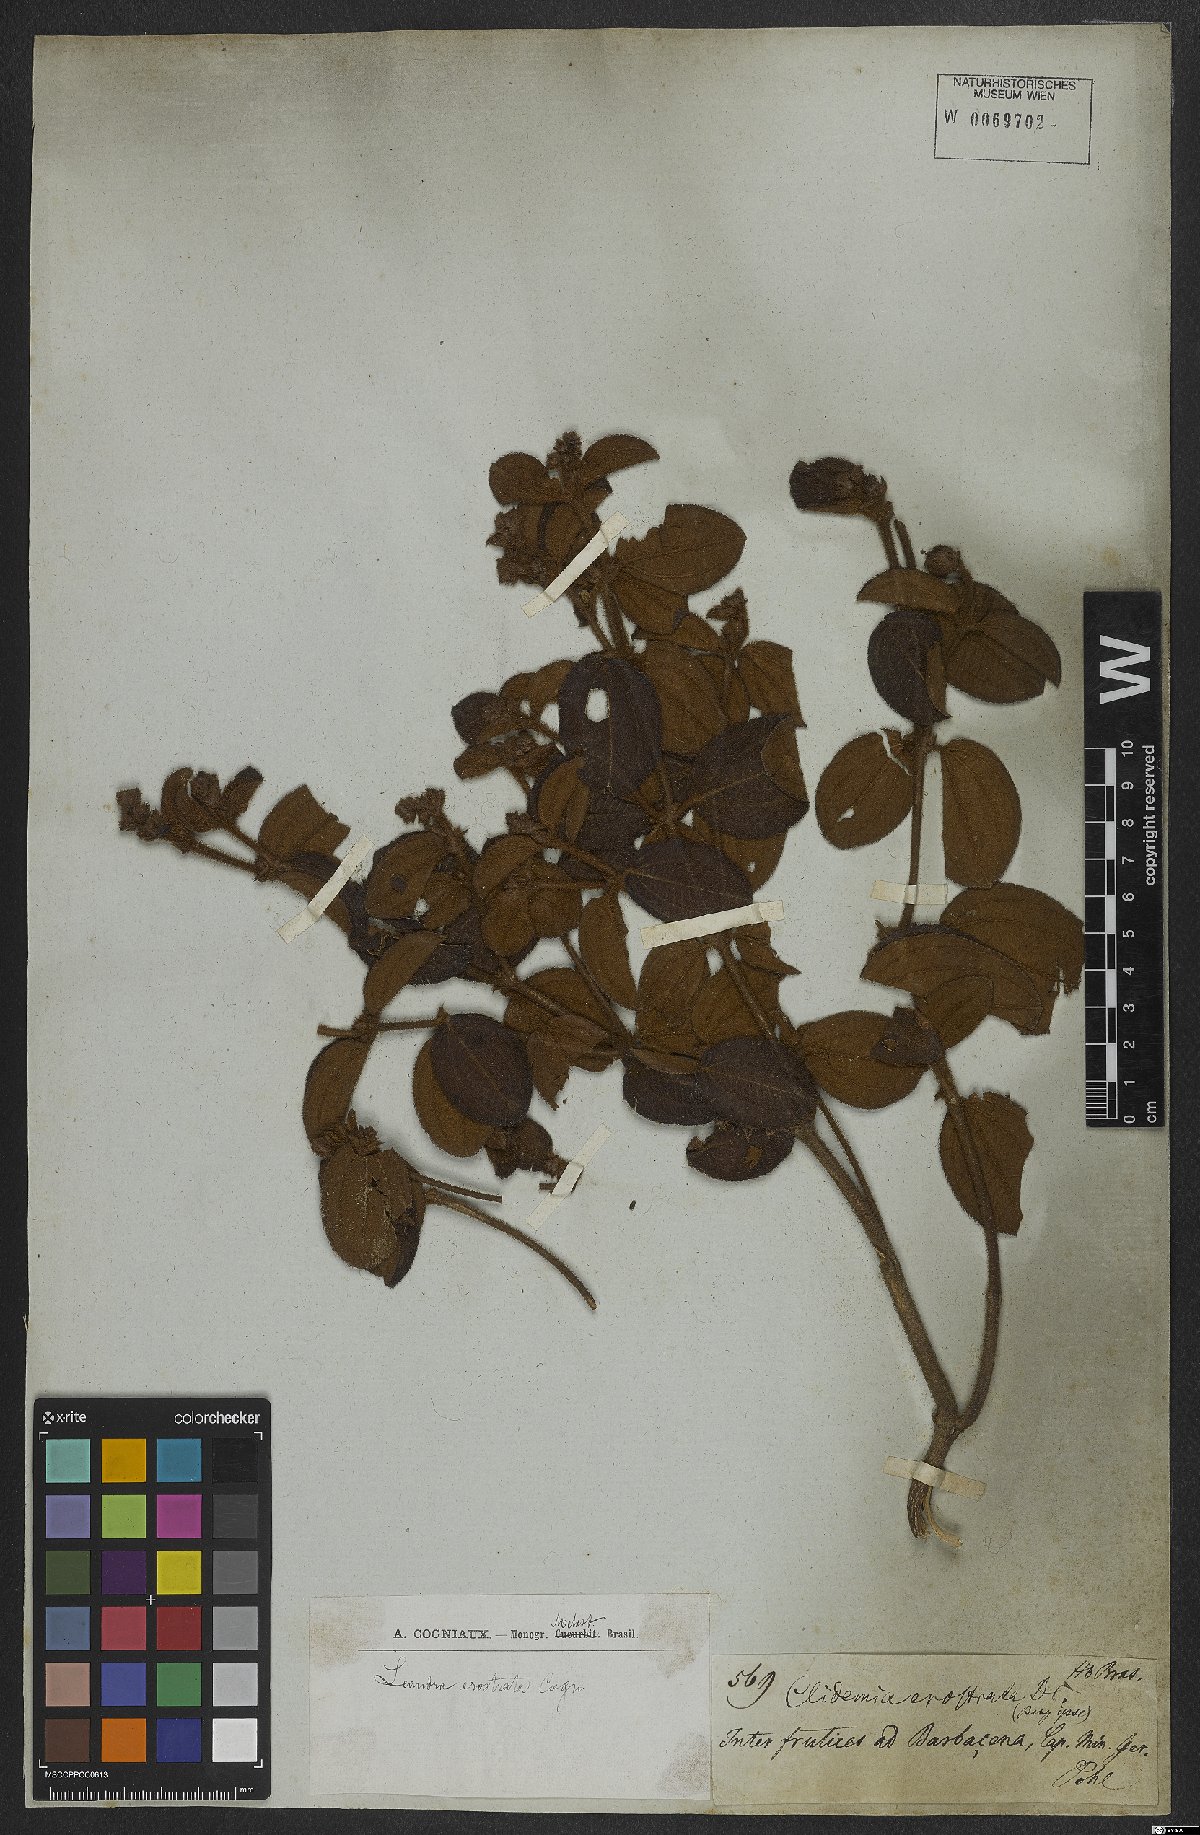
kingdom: Plantae
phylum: Tracheophyta
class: Magnoliopsida
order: Myrtales
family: Melastomataceae
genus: Miconia
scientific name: Miconia erostrata
